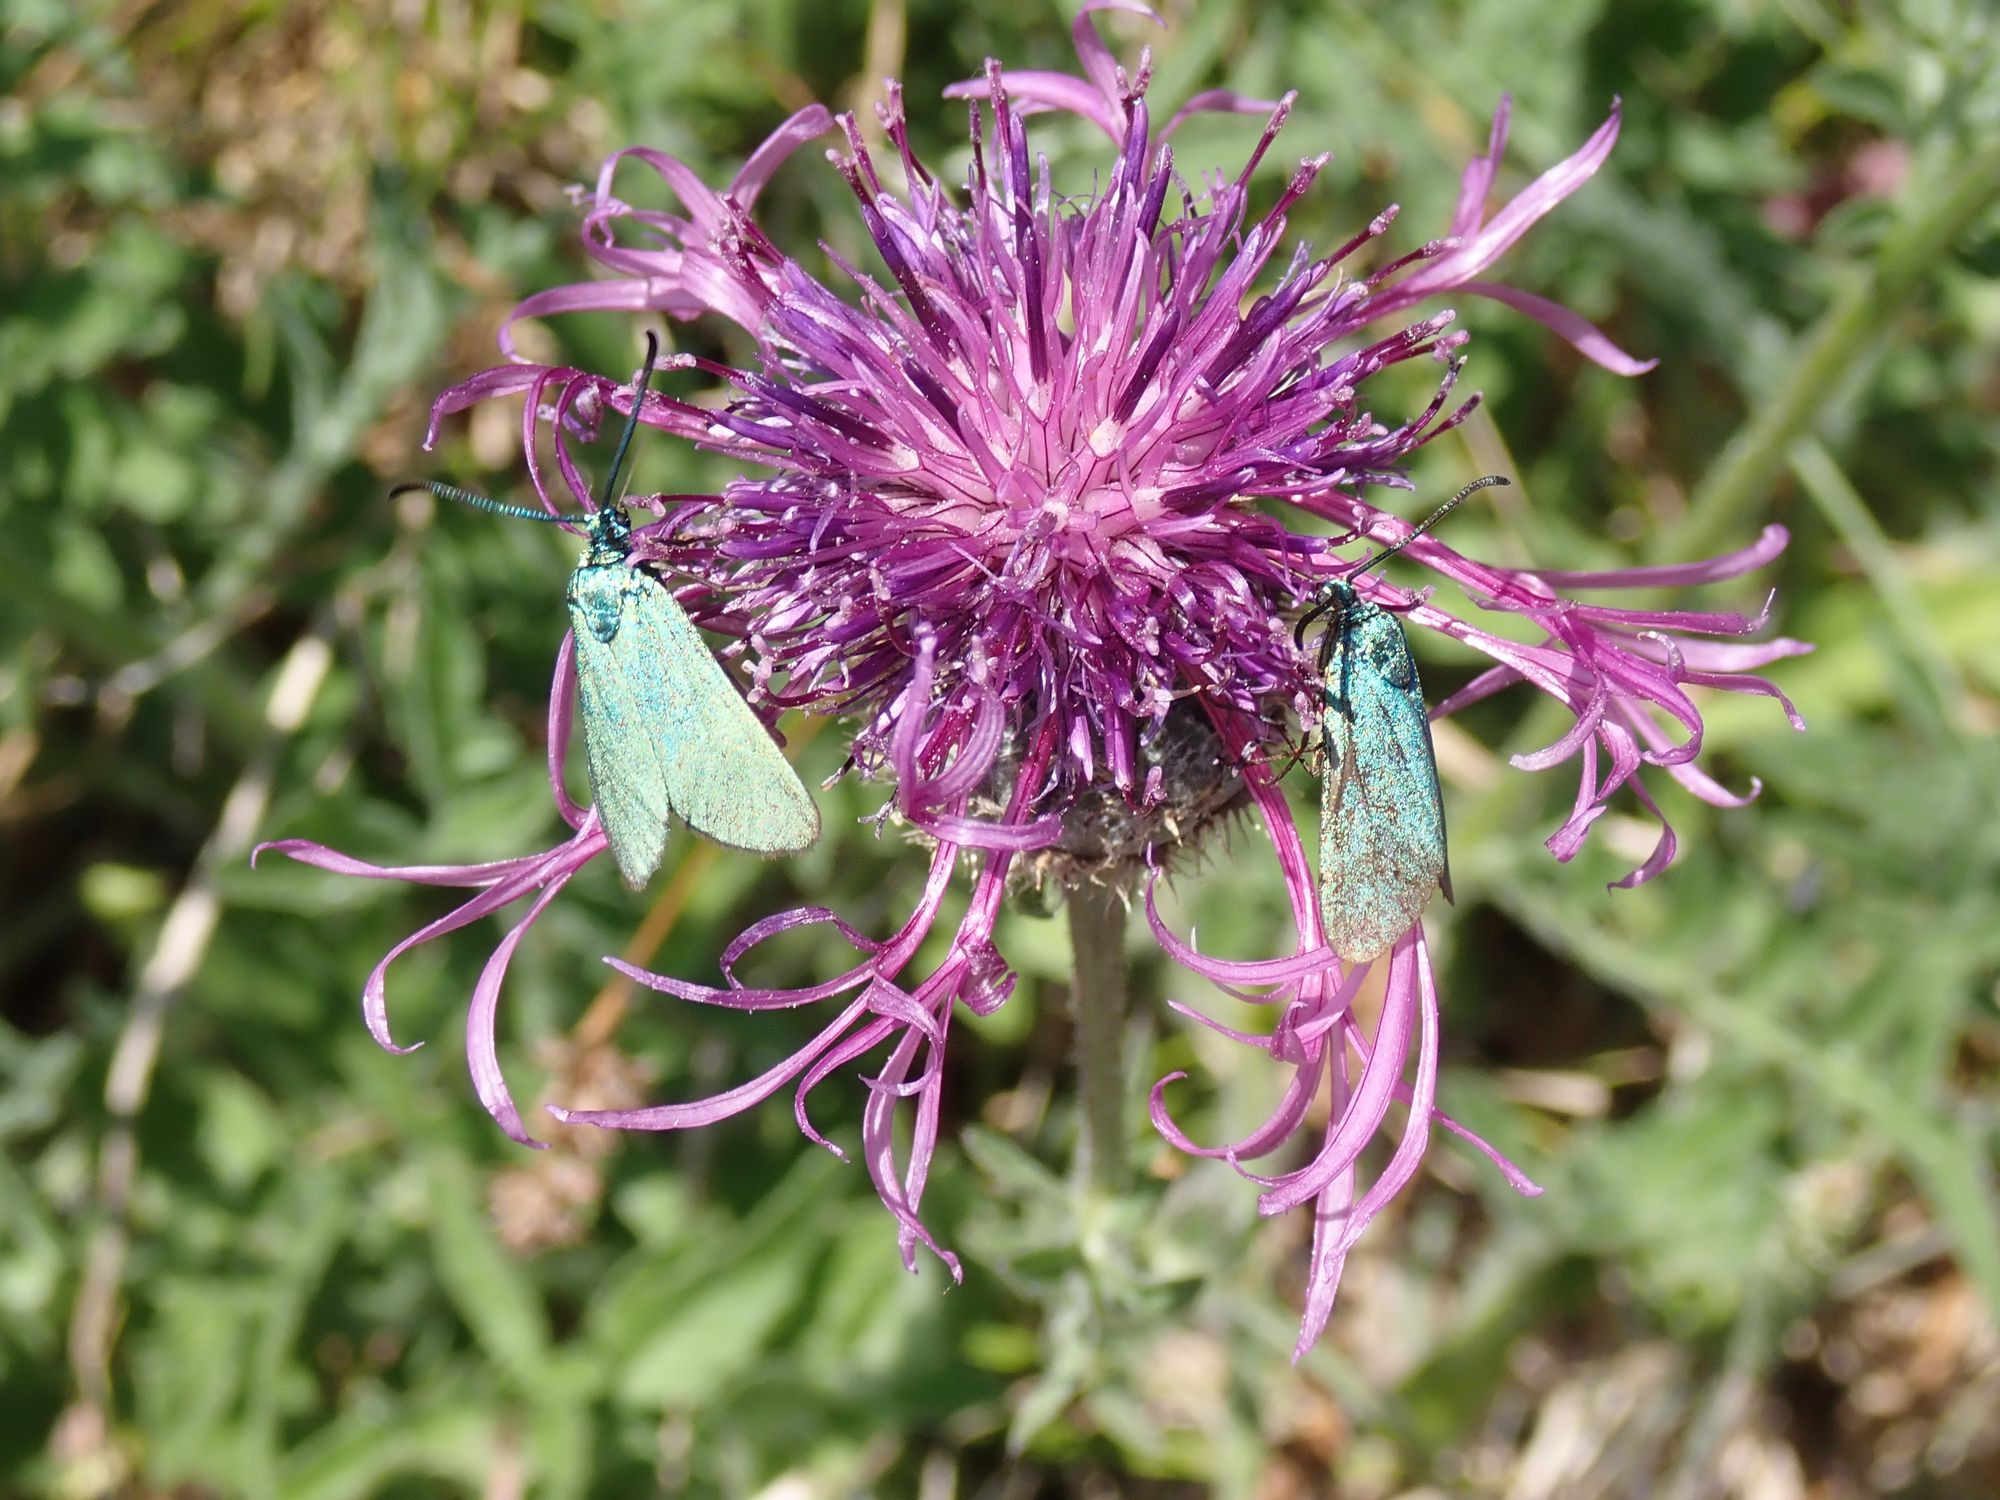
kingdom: Animalia
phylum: Arthropoda
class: Insecta
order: Lepidoptera
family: Zygaenidae
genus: Adscita
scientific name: Adscita statices
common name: Metalvinge
